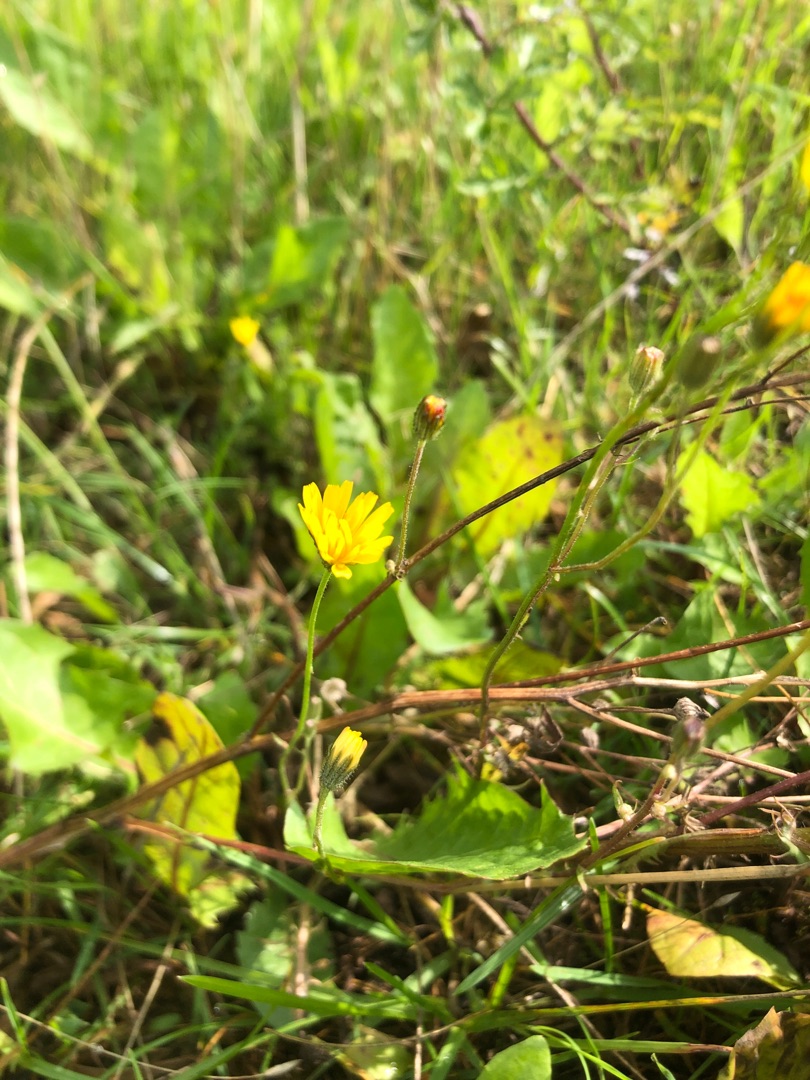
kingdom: Plantae
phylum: Tracheophyta
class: Magnoliopsida
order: Asterales
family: Asteraceae
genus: Crepis
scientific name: Crepis capillaris
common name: Grøn høgeskæg
